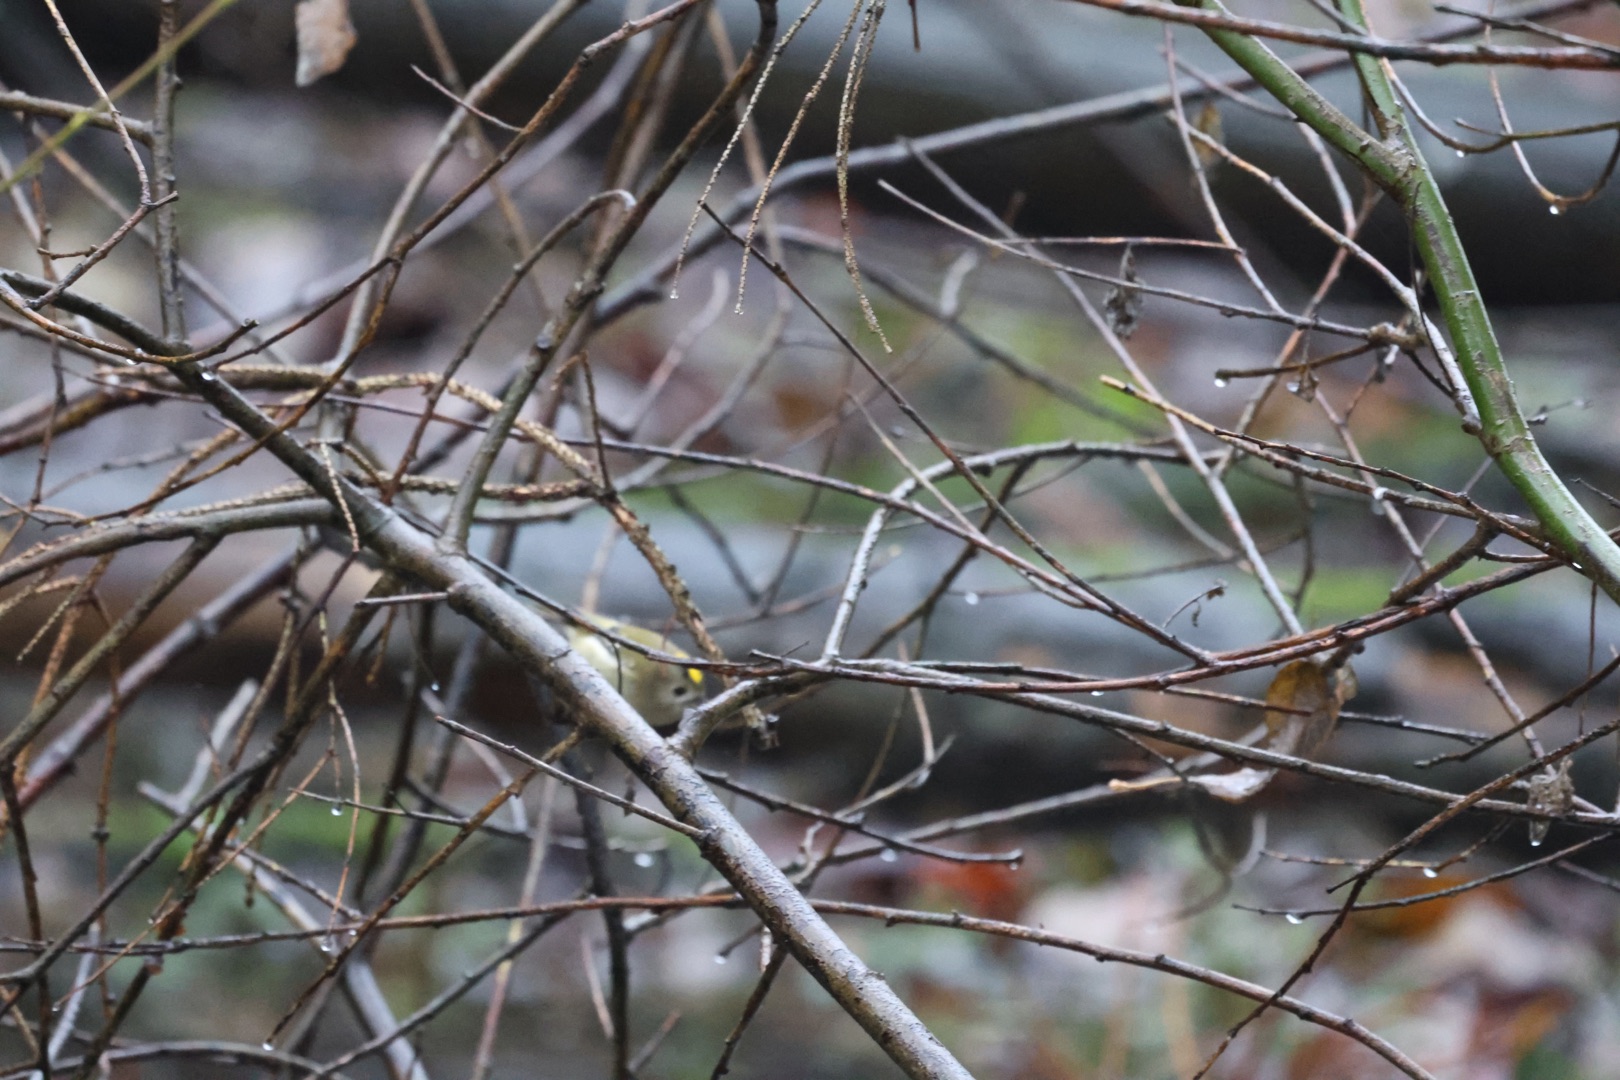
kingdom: Animalia
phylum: Chordata
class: Aves
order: Passeriformes
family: Regulidae
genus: Regulus
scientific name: Regulus regulus
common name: Fuglekonge
